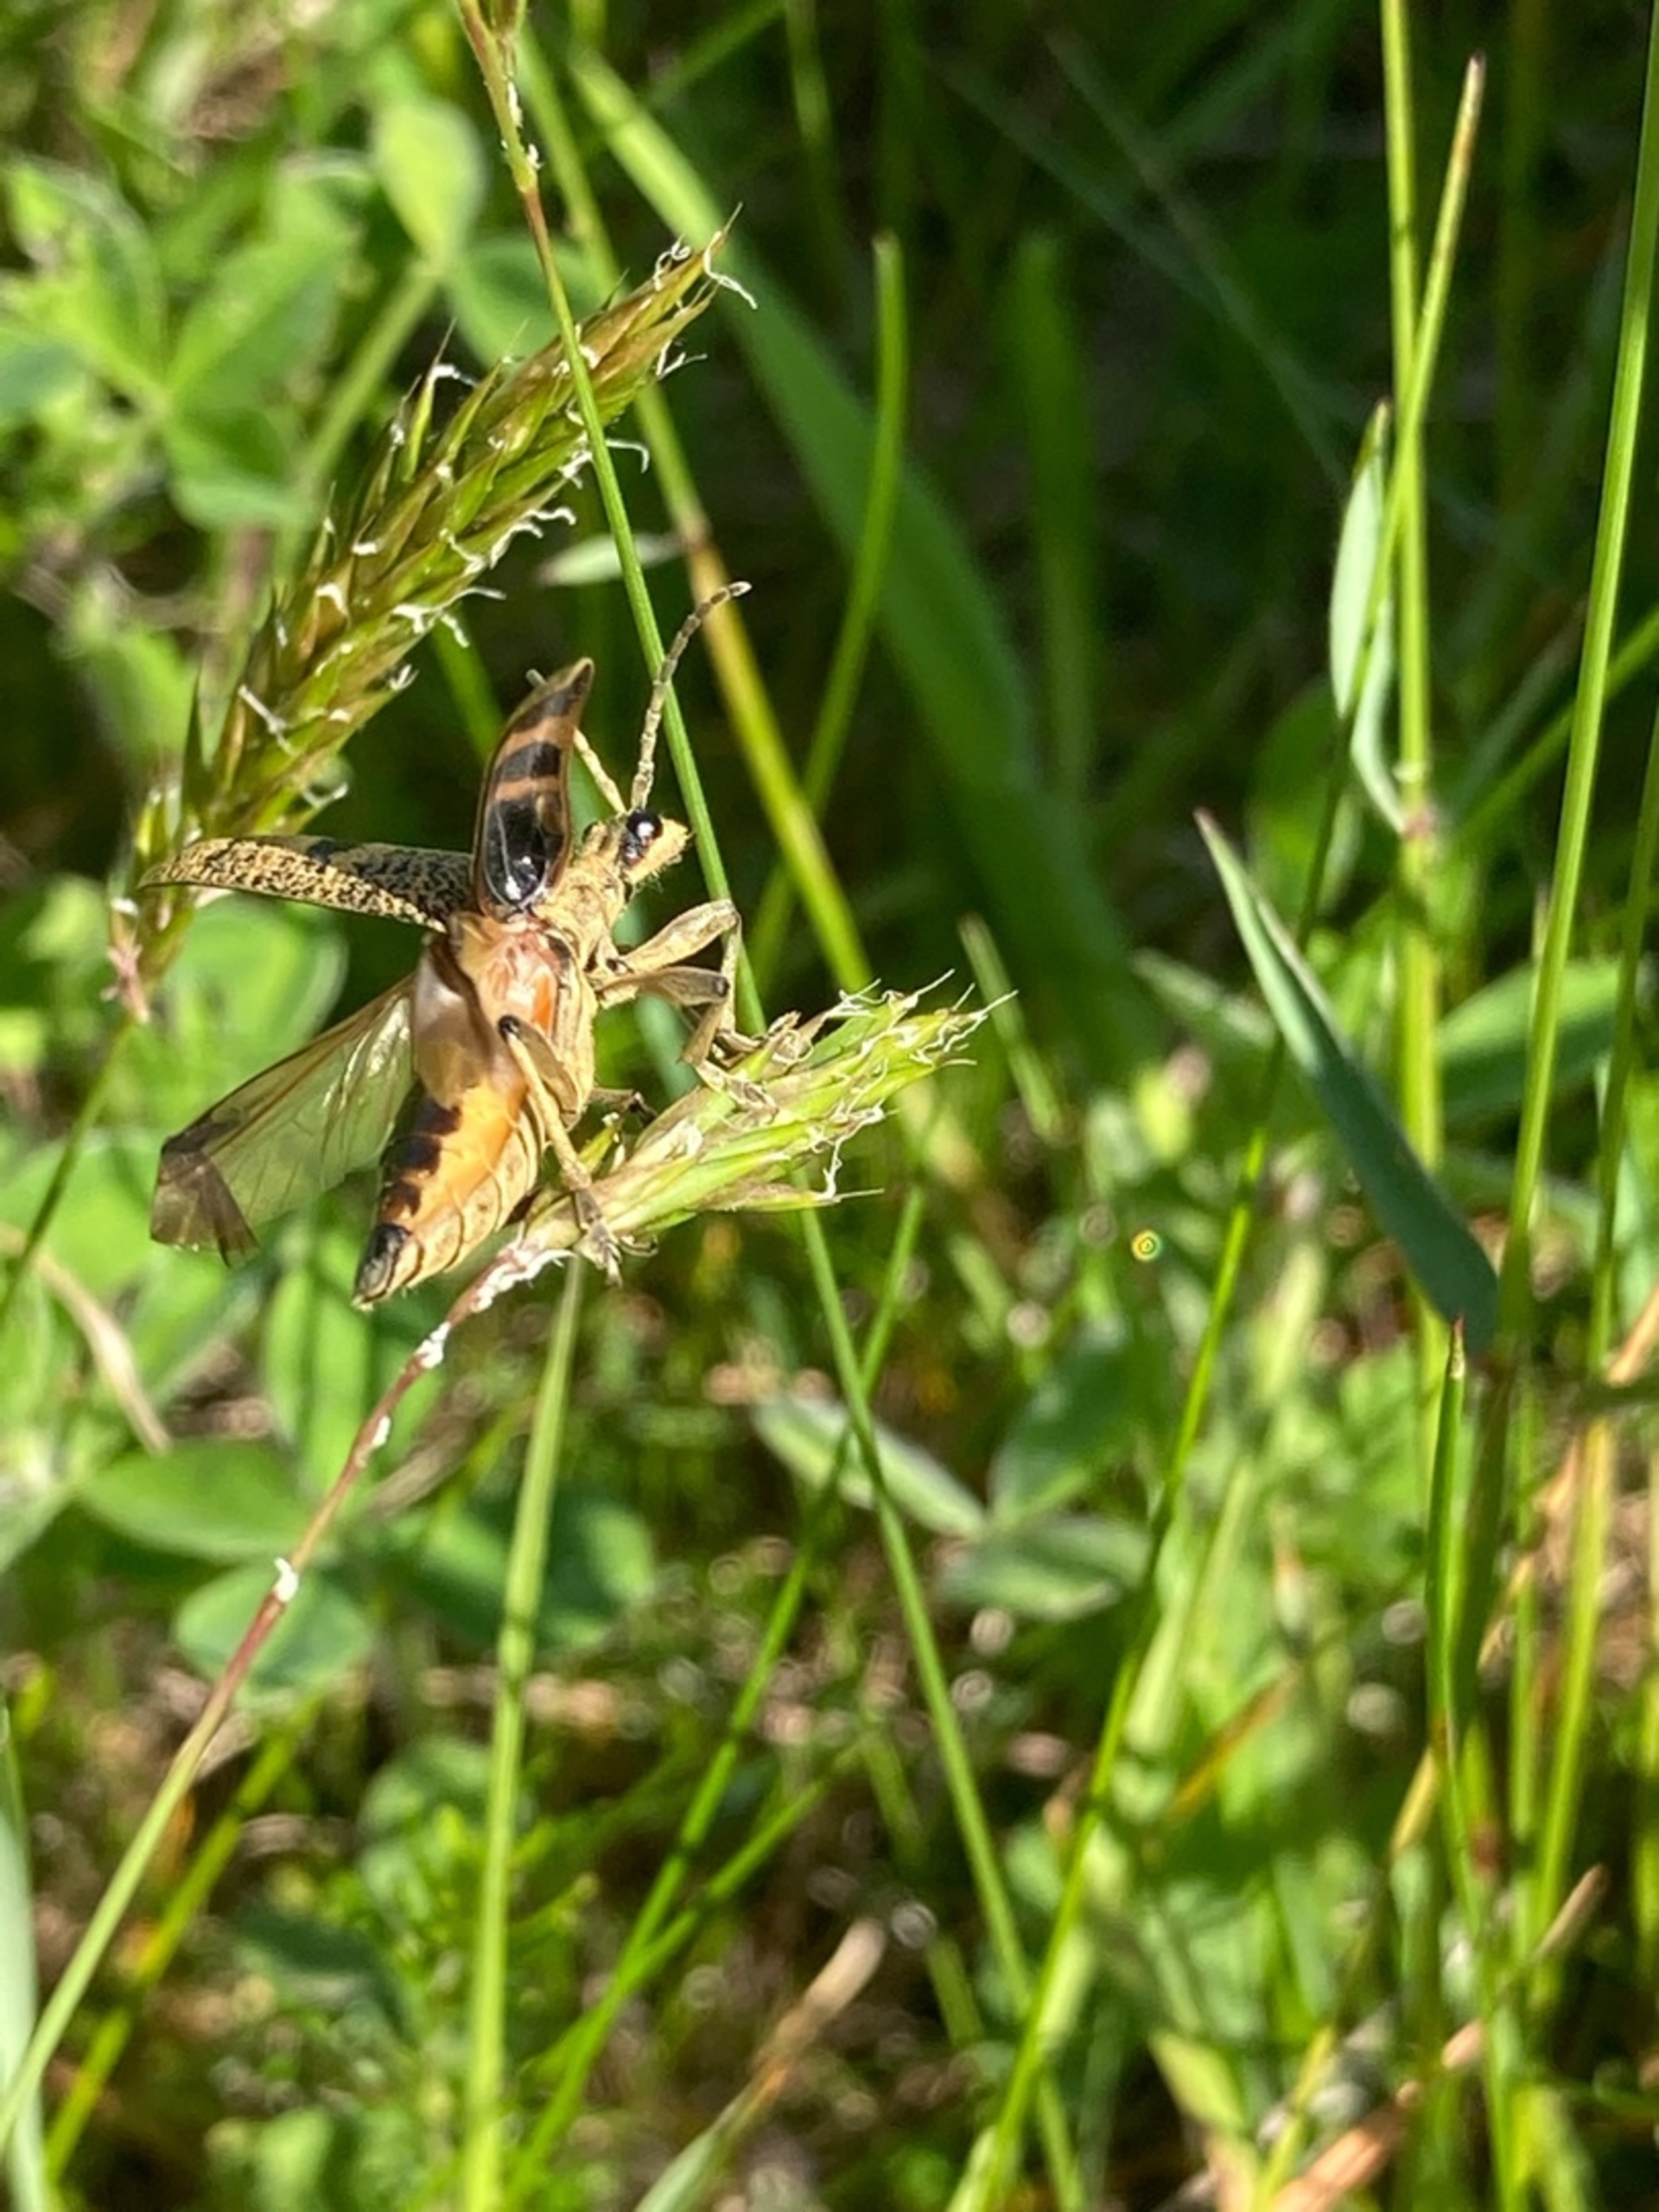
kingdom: Animalia
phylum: Arthropoda
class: Insecta
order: Coleoptera
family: Cerambycidae
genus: Rhagium
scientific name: Rhagium mordax
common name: Blankplettet tandbuk
